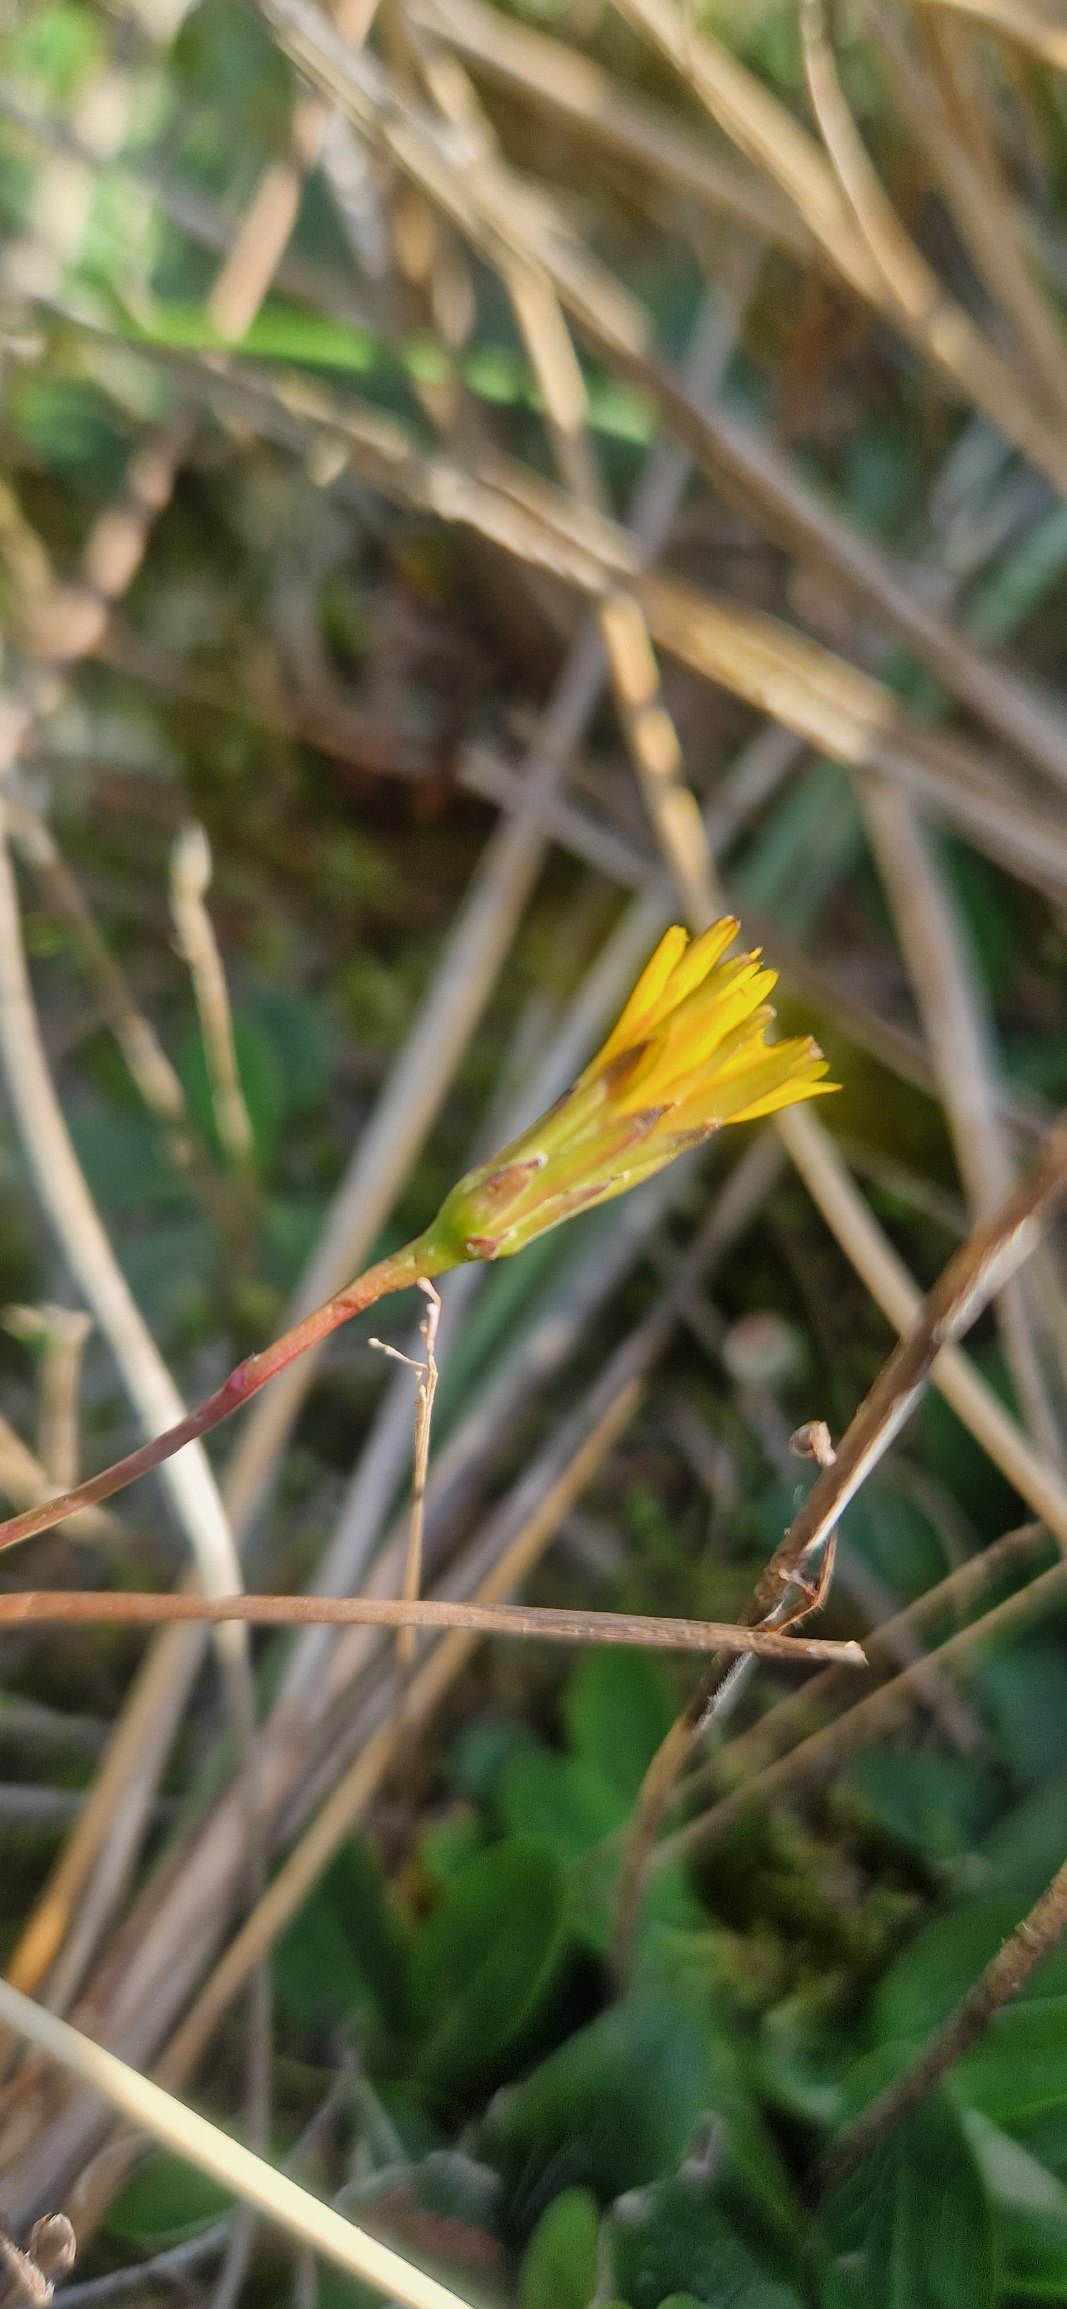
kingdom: Plantae
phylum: Tracheophyta
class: Magnoliopsida
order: Asterales
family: Asteraceae
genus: Hypochaeris
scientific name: Hypochaeris glabra
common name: Glat kongepen
